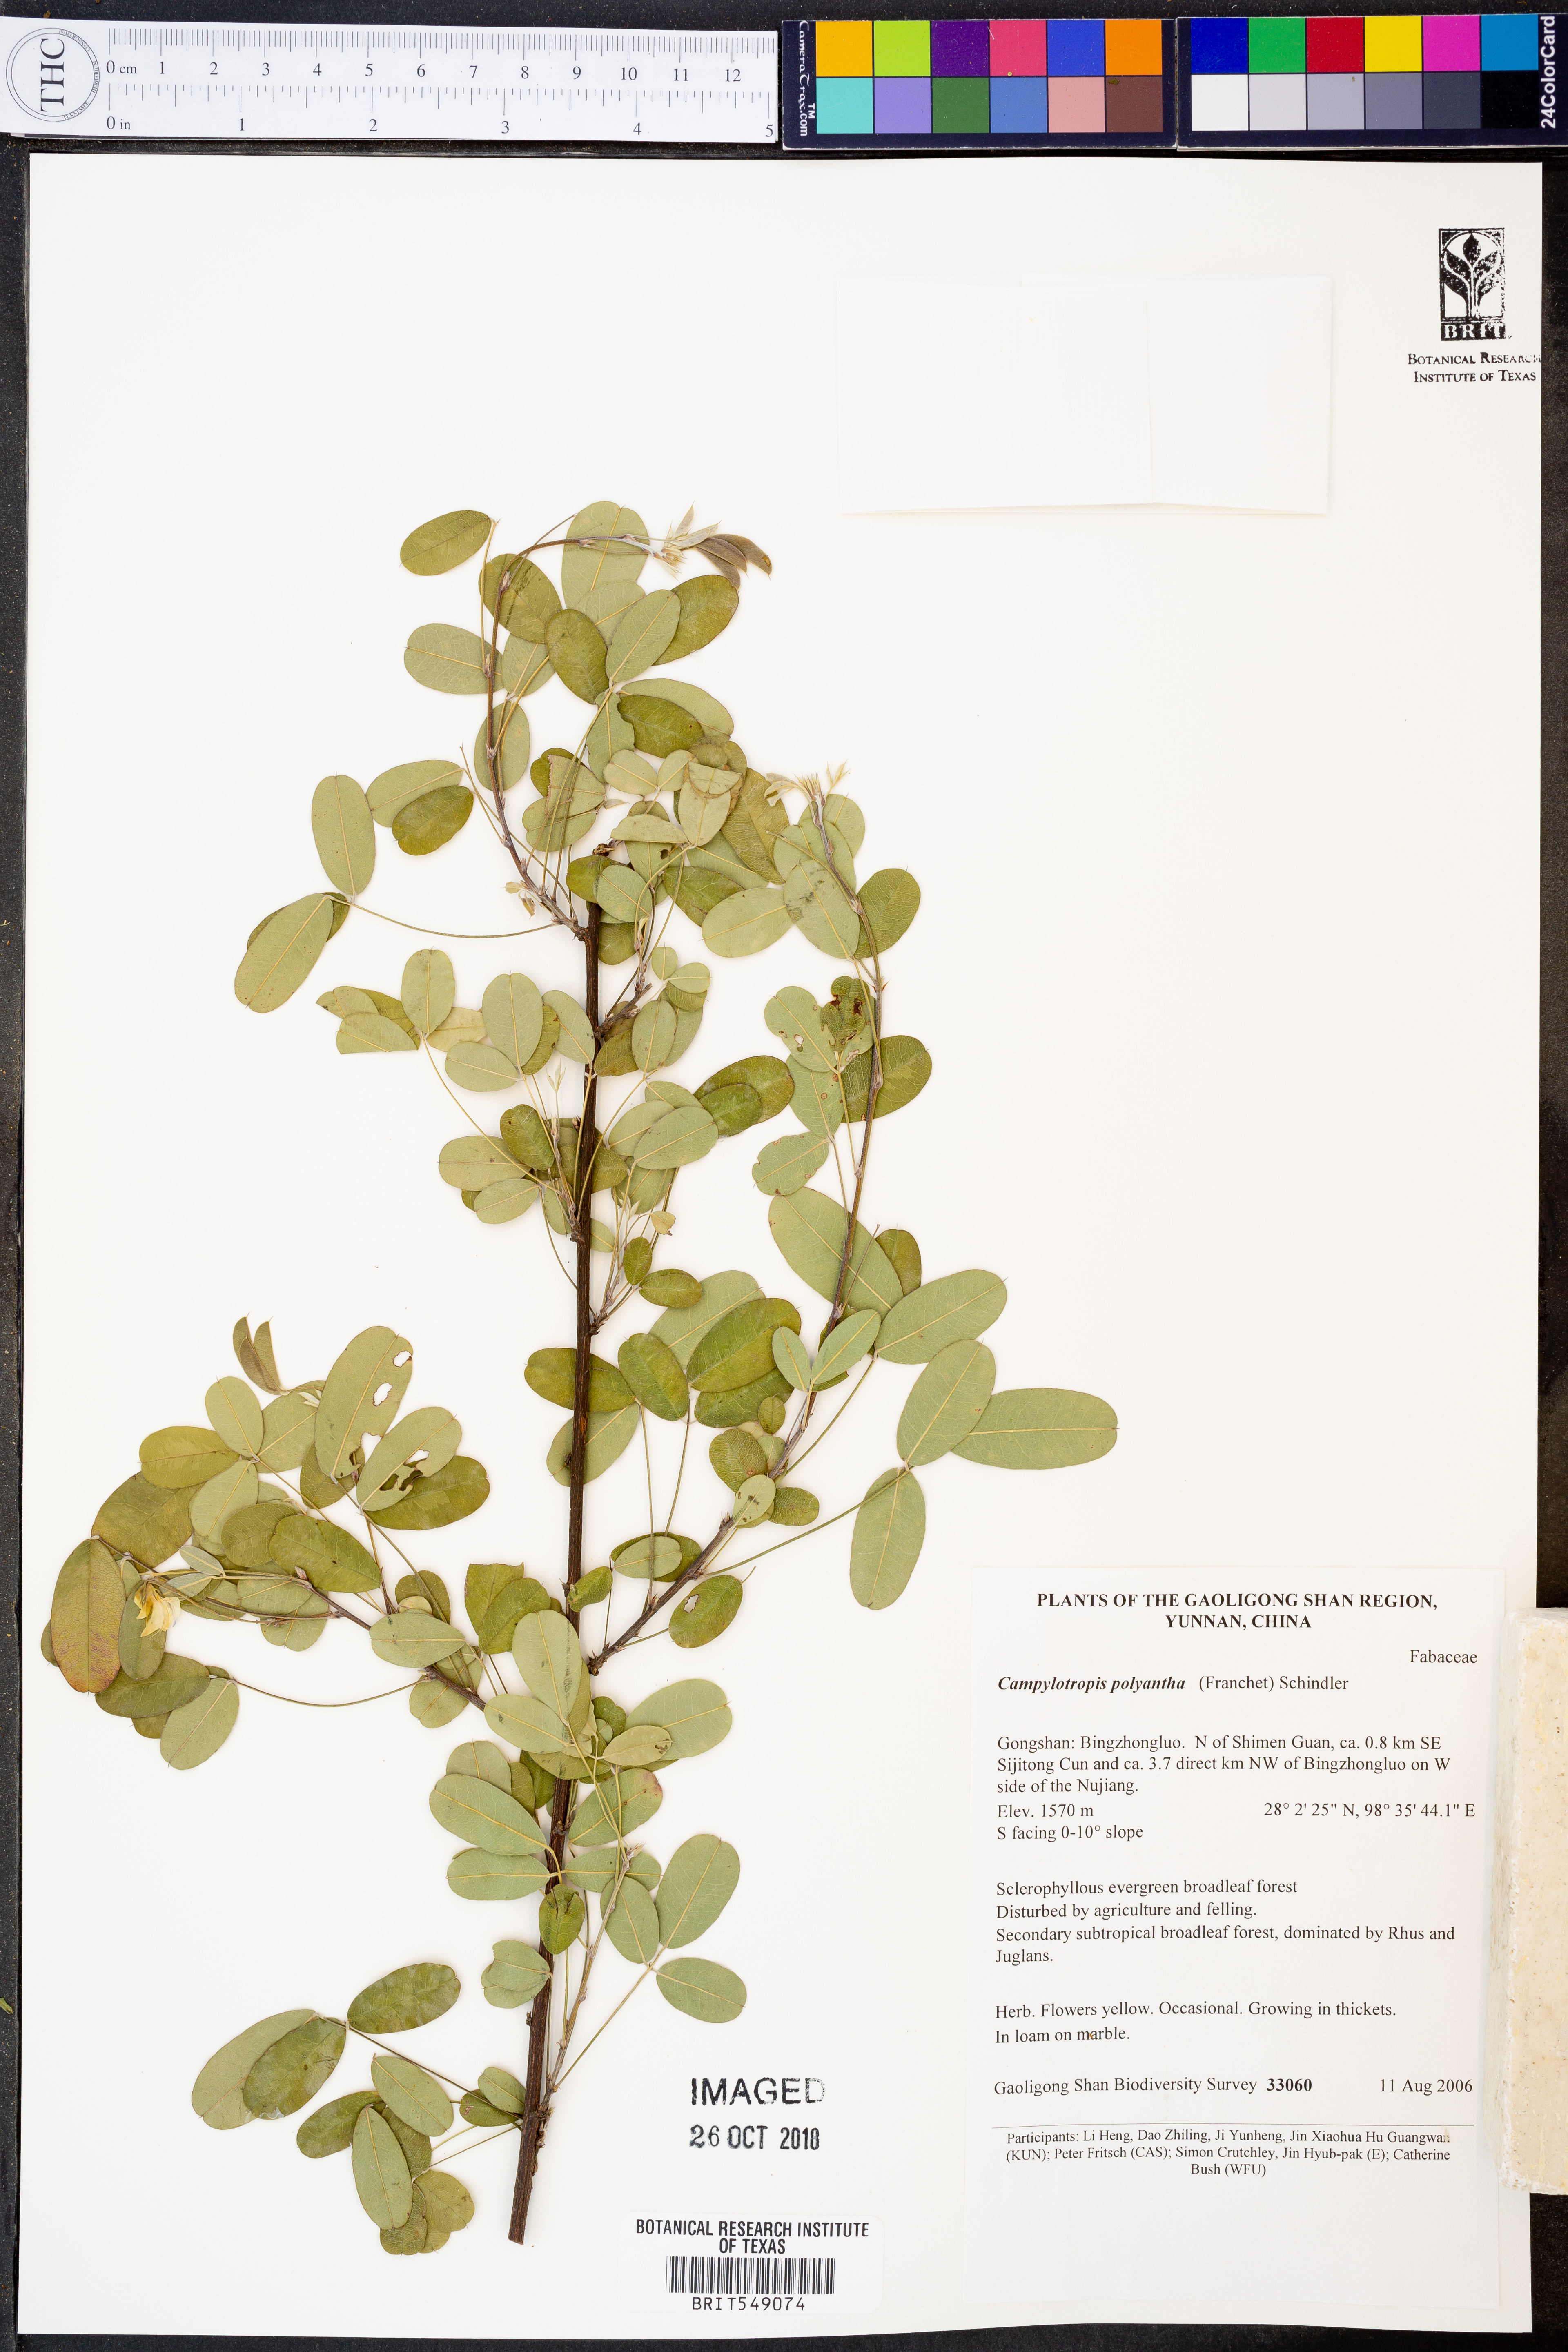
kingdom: Plantae
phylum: Tracheophyta
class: Magnoliopsida
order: Fabales
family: Fabaceae
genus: Campylotropis
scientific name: Campylotropis polyantha
